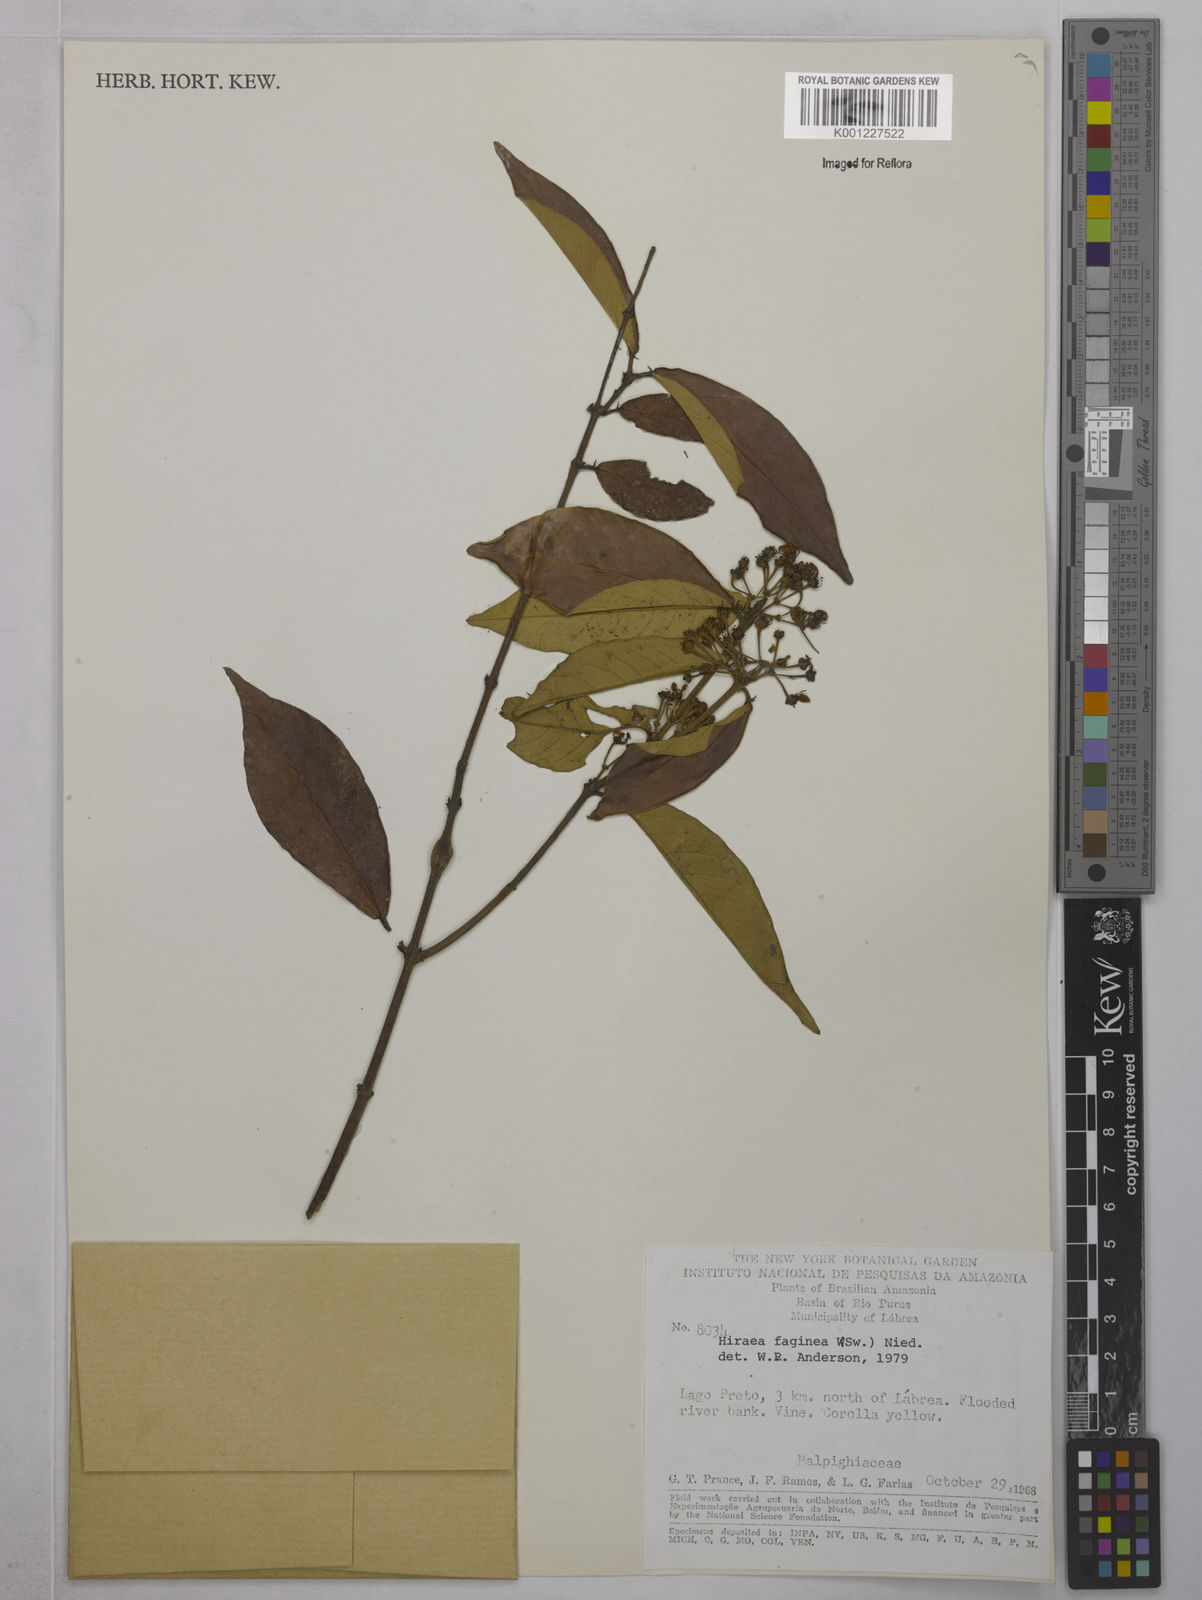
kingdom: Plantae
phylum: Tracheophyta
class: Magnoliopsida
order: Malpighiales
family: Malpighiaceae
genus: Hiraea
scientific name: Hiraea faginea
